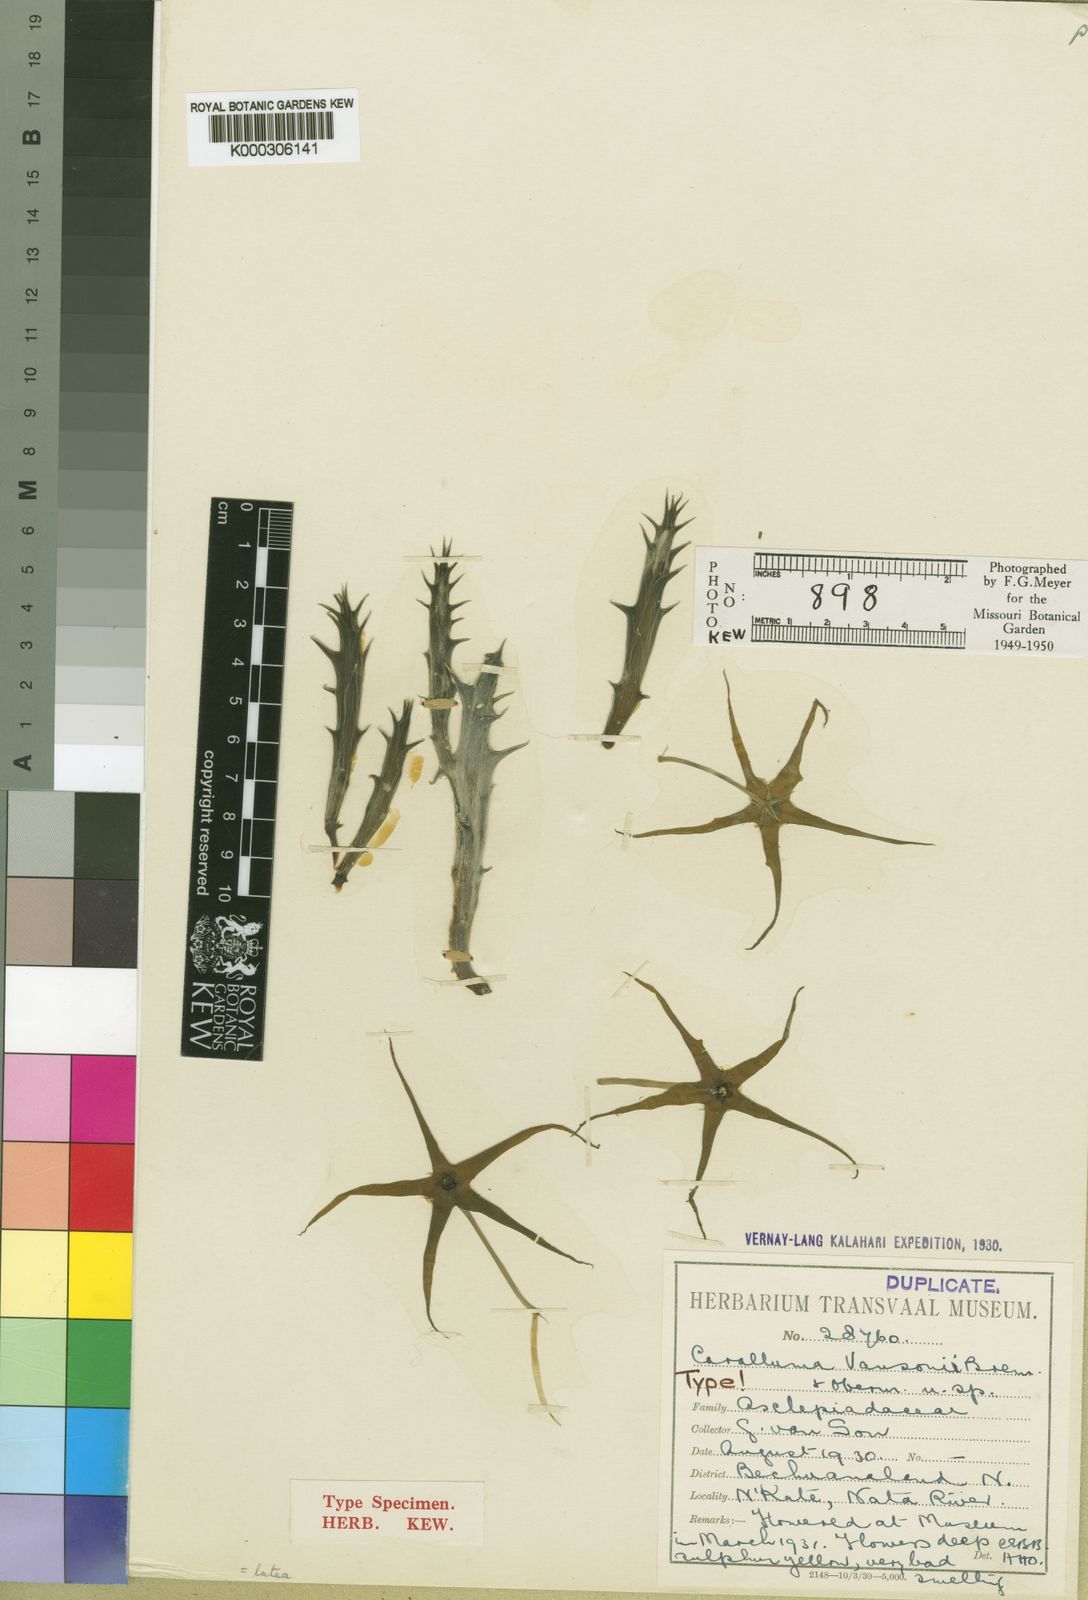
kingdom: Plantae
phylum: Tracheophyta
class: Magnoliopsida
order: Gentianales
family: Apocynaceae
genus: Ceropegia
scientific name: Ceropegia lutea
